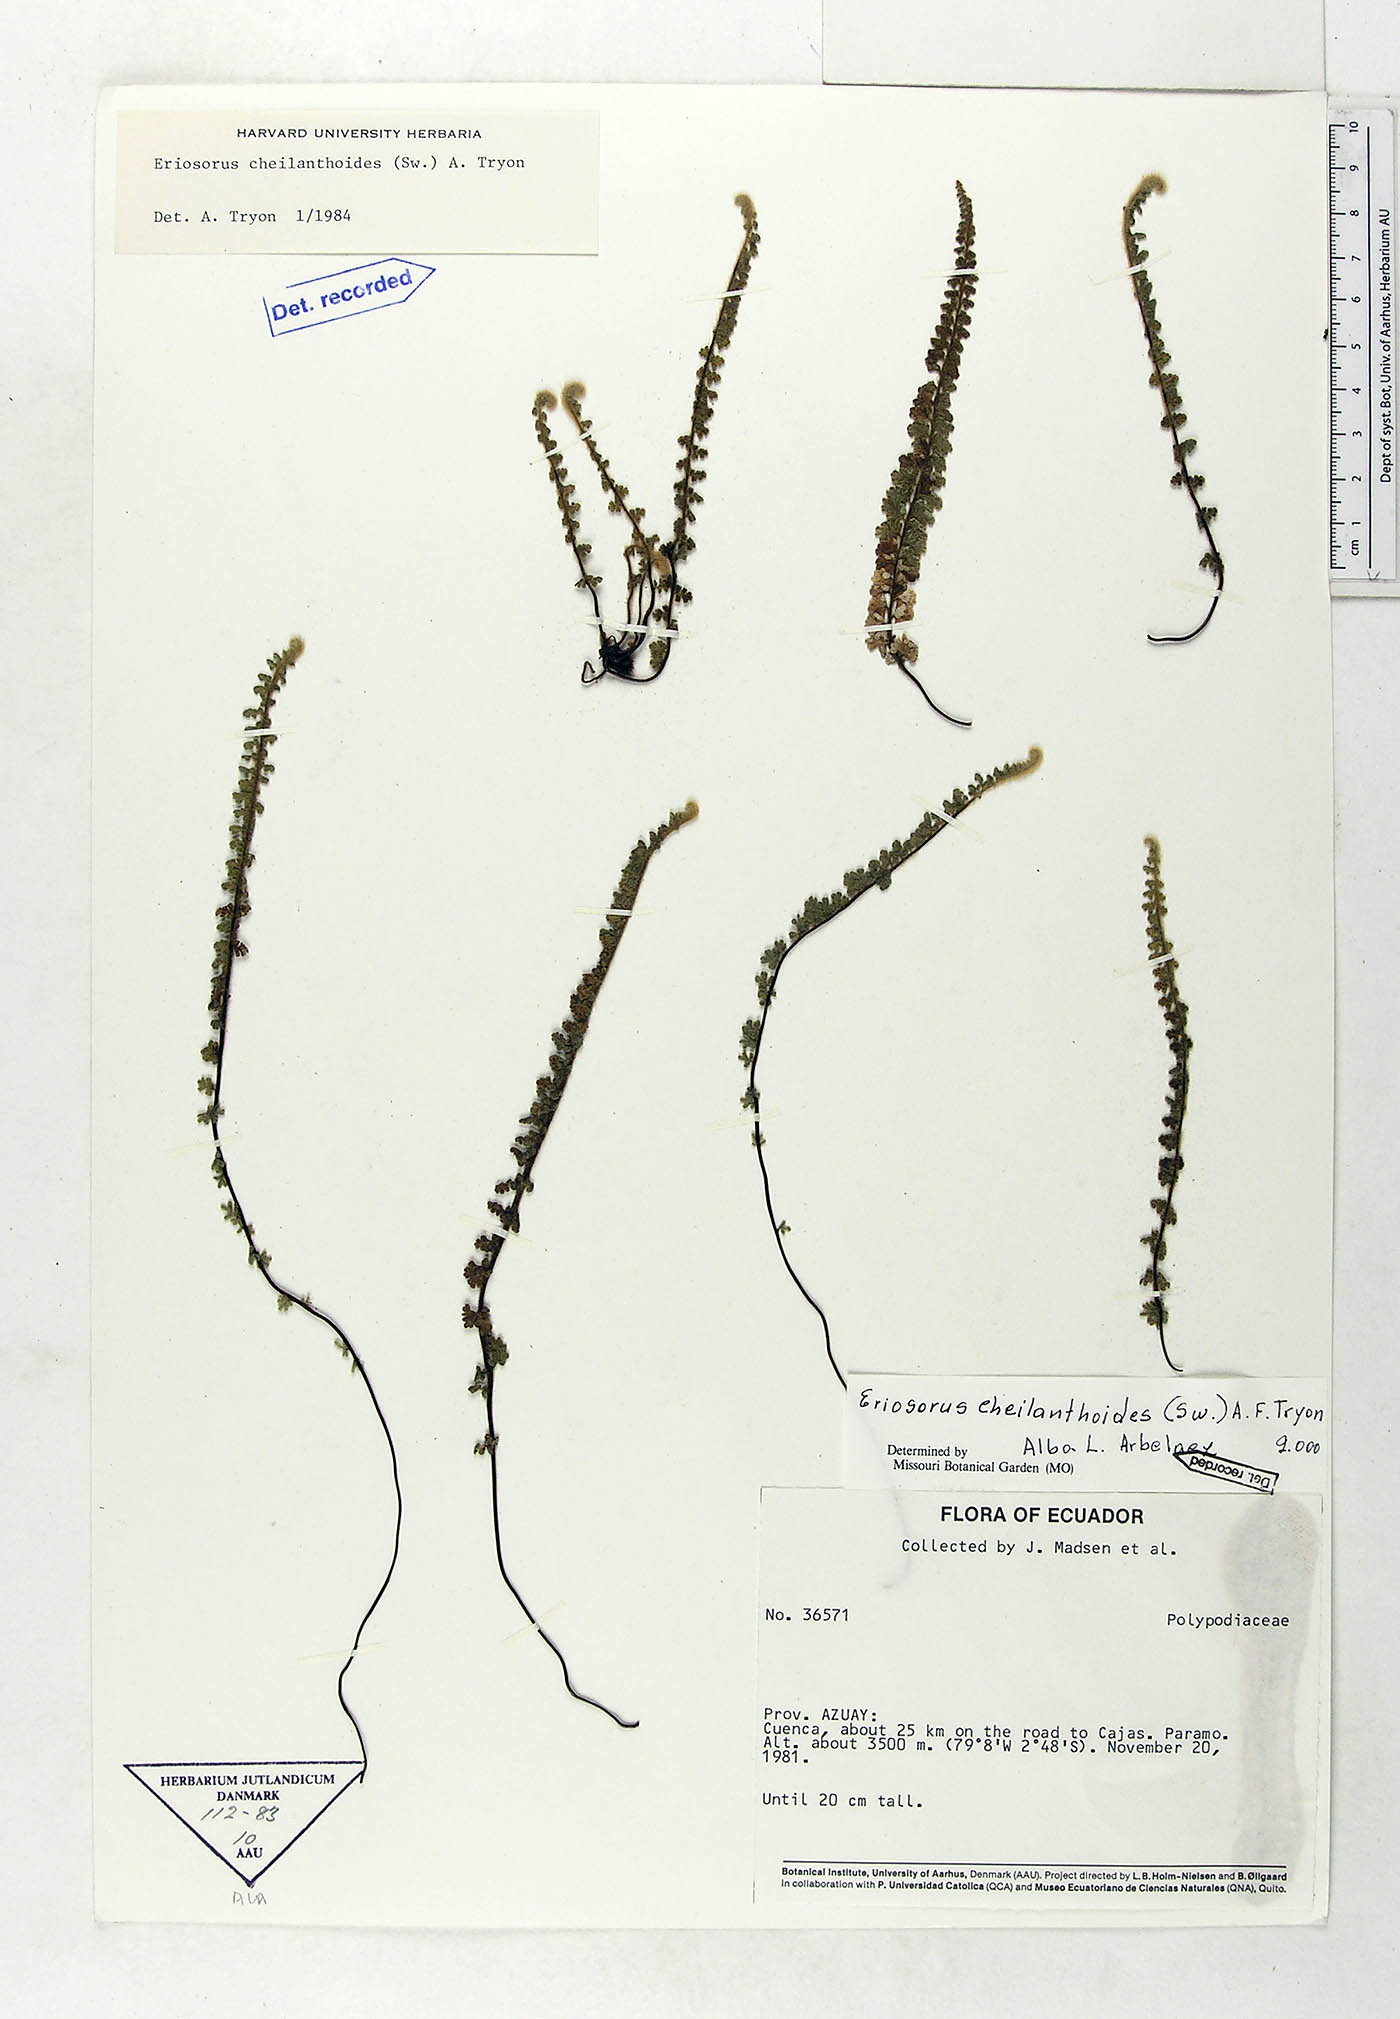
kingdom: Plantae
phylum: Tracheophyta
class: Polypodiopsida
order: Polypodiales
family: Pteridaceae
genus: Jamesonia
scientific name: Jamesonia cheilanthoides
